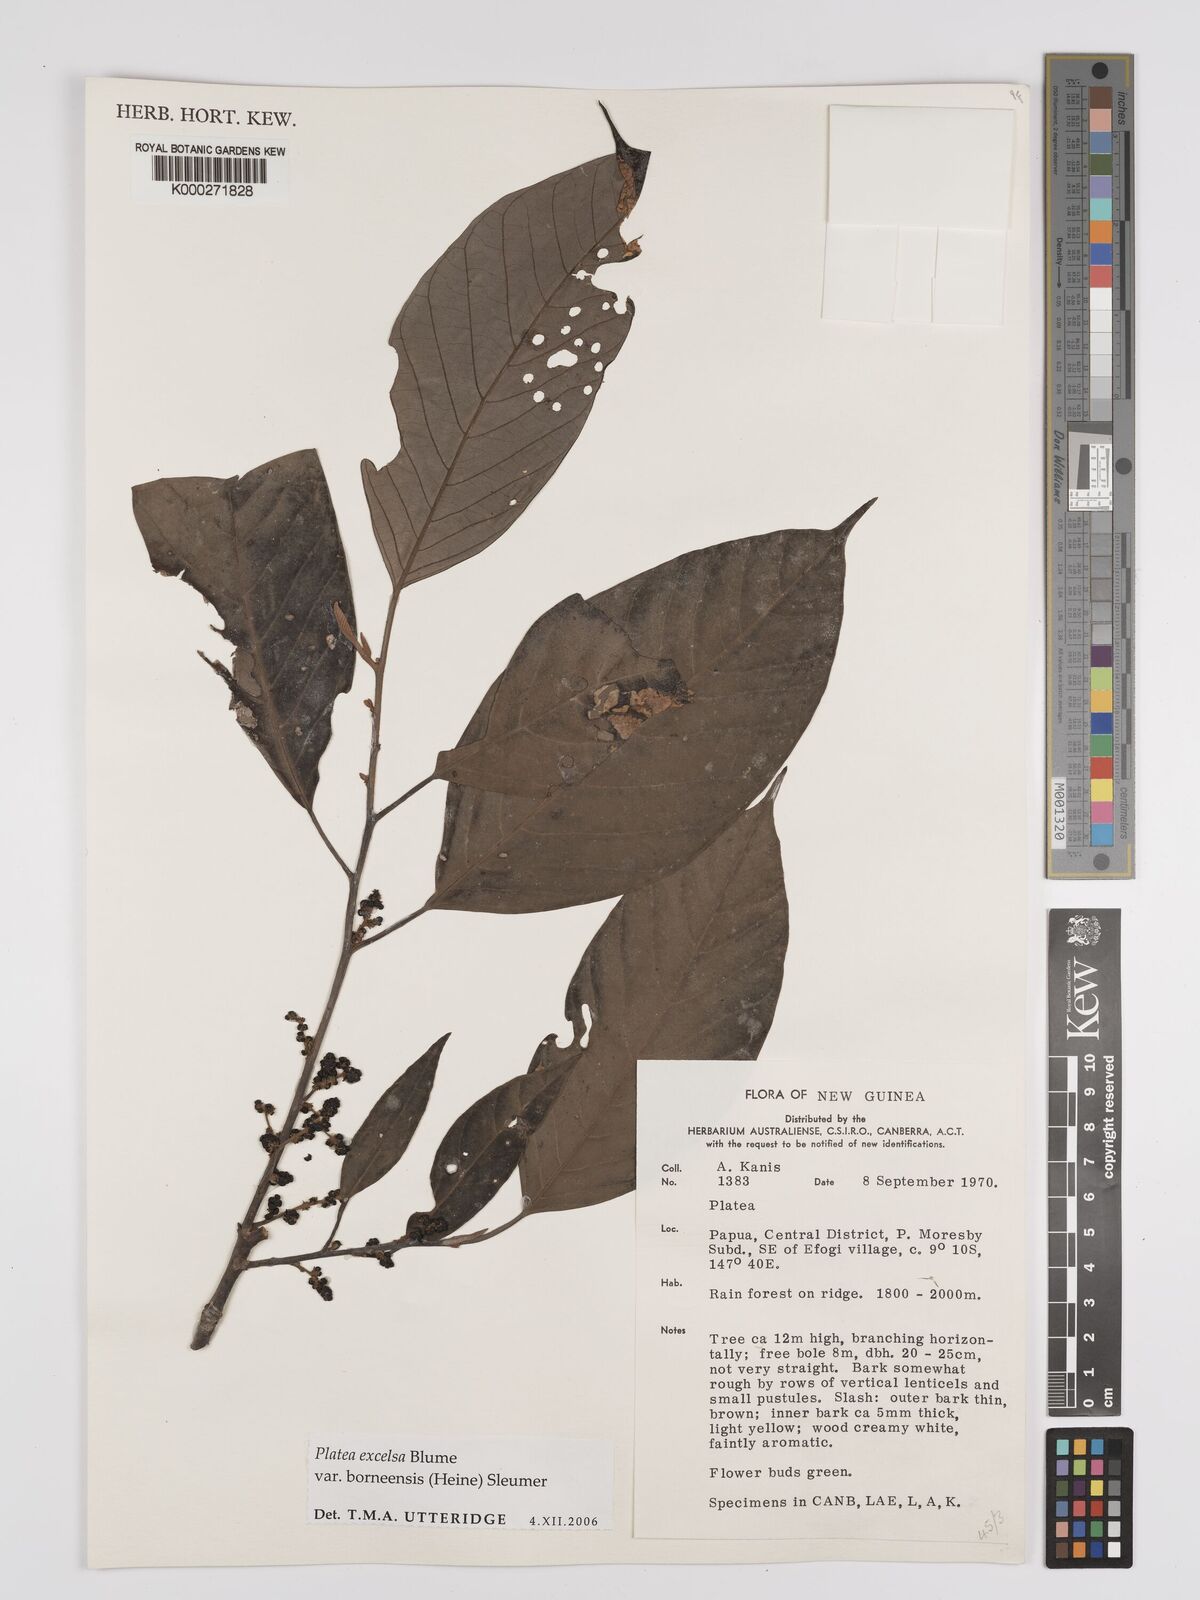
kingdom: Plantae
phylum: Tracheophyta
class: Magnoliopsida
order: Metteniusales
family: Metteniusaceae
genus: Platea
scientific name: Platea excelsa
